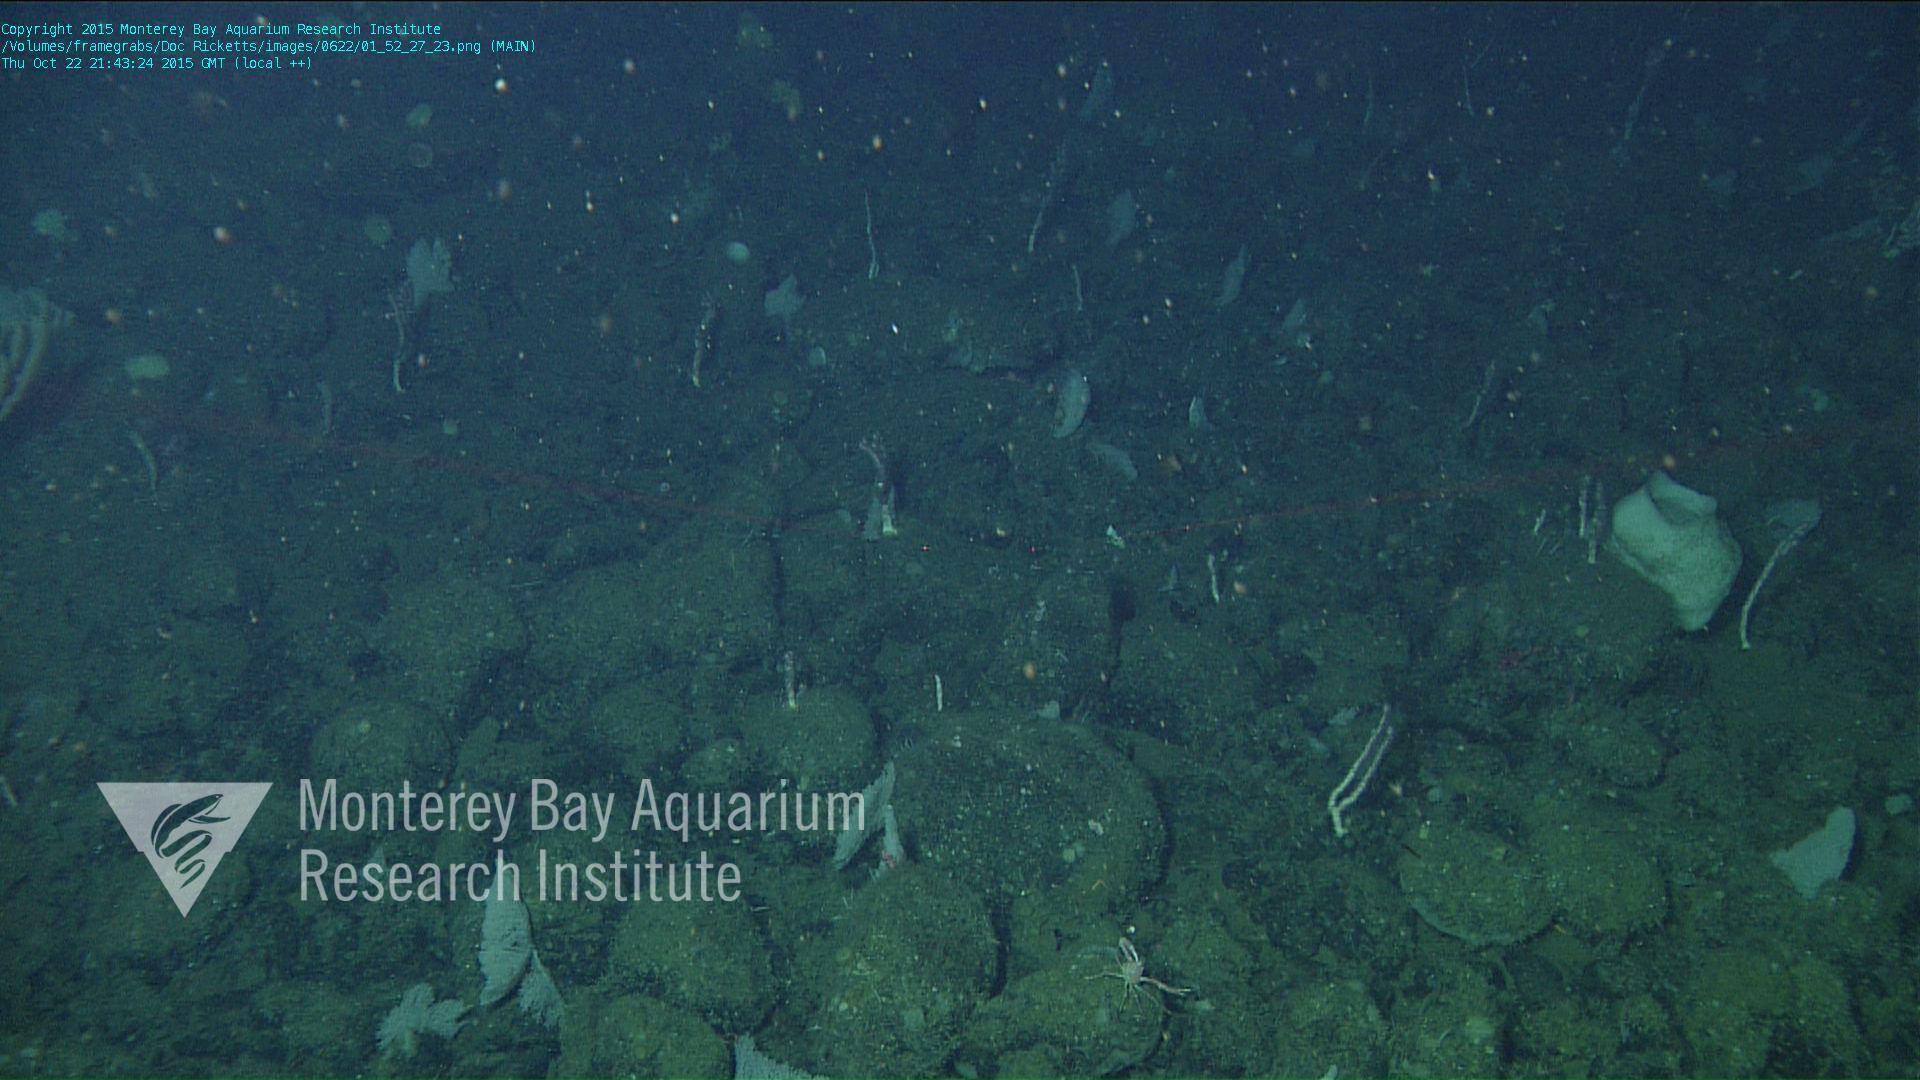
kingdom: Animalia
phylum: Cnidaria
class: Anthozoa
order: Scleralcyonacea
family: Coralliidae
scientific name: Coralliidae
